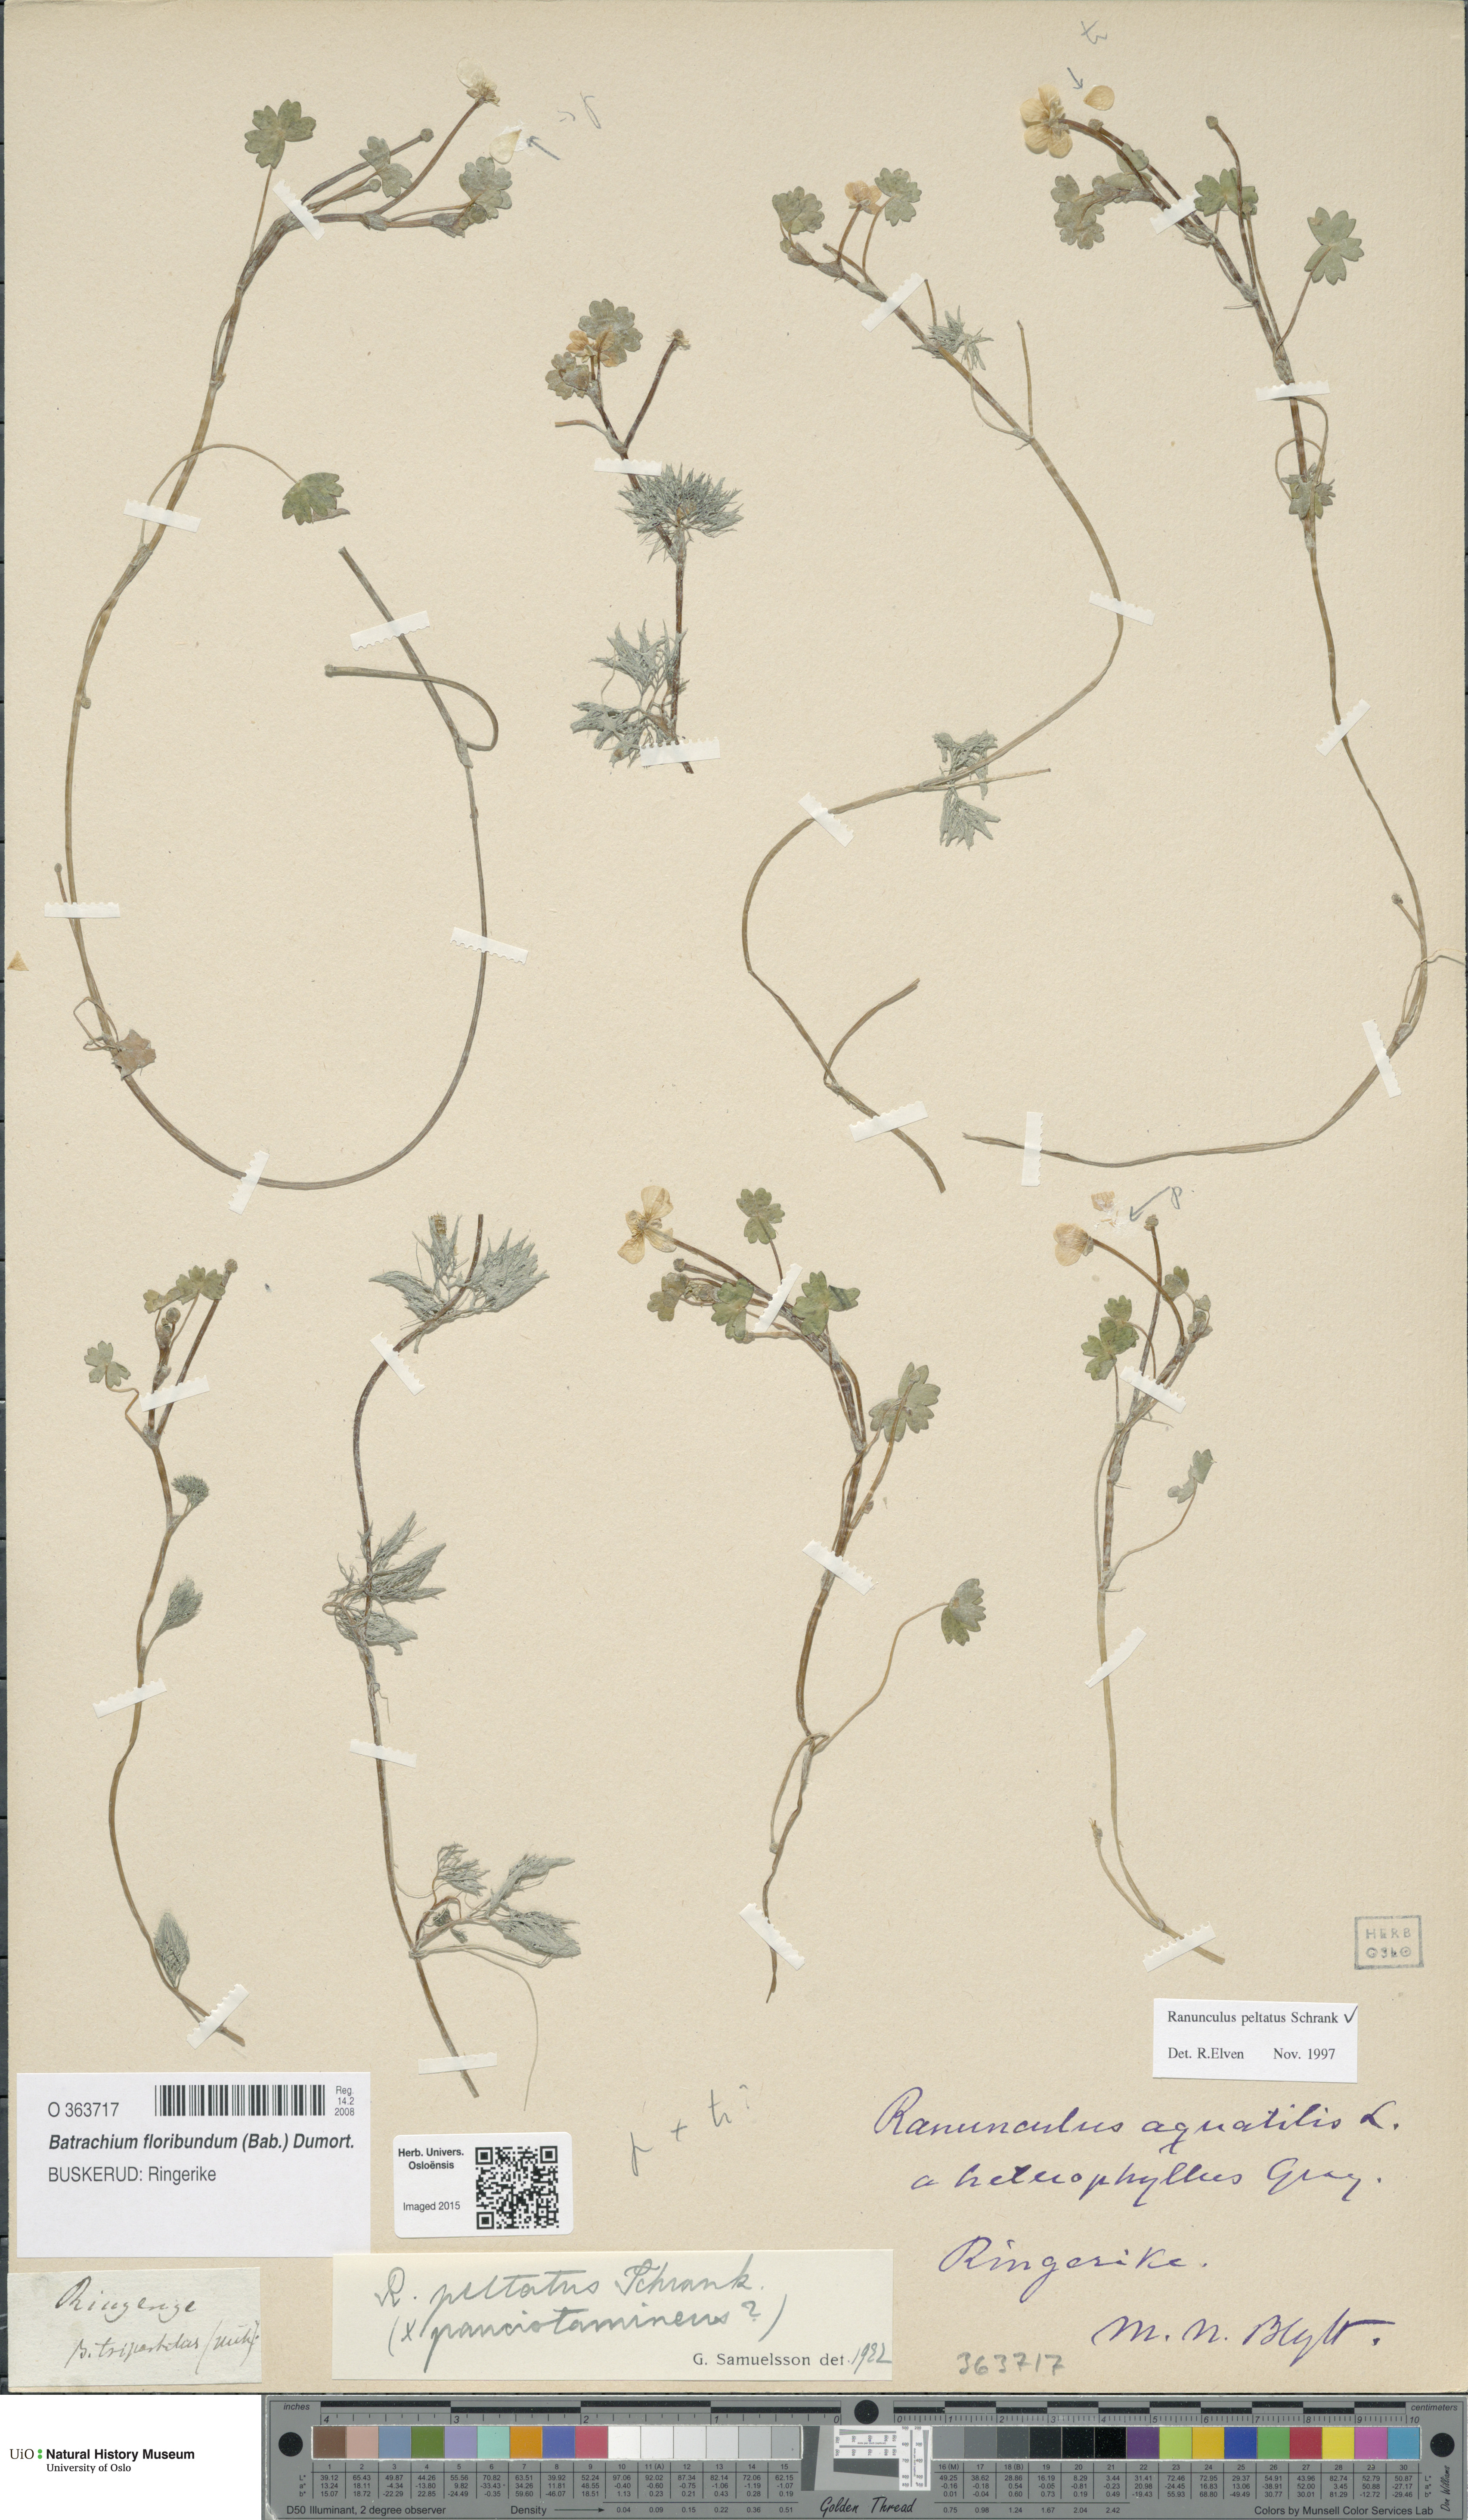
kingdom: Plantae
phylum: Tracheophyta
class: Magnoliopsida
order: Ranunculales
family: Ranunculaceae
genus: Ranunculus
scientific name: Ranunculus peltatus
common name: Pond water-crowfoot
